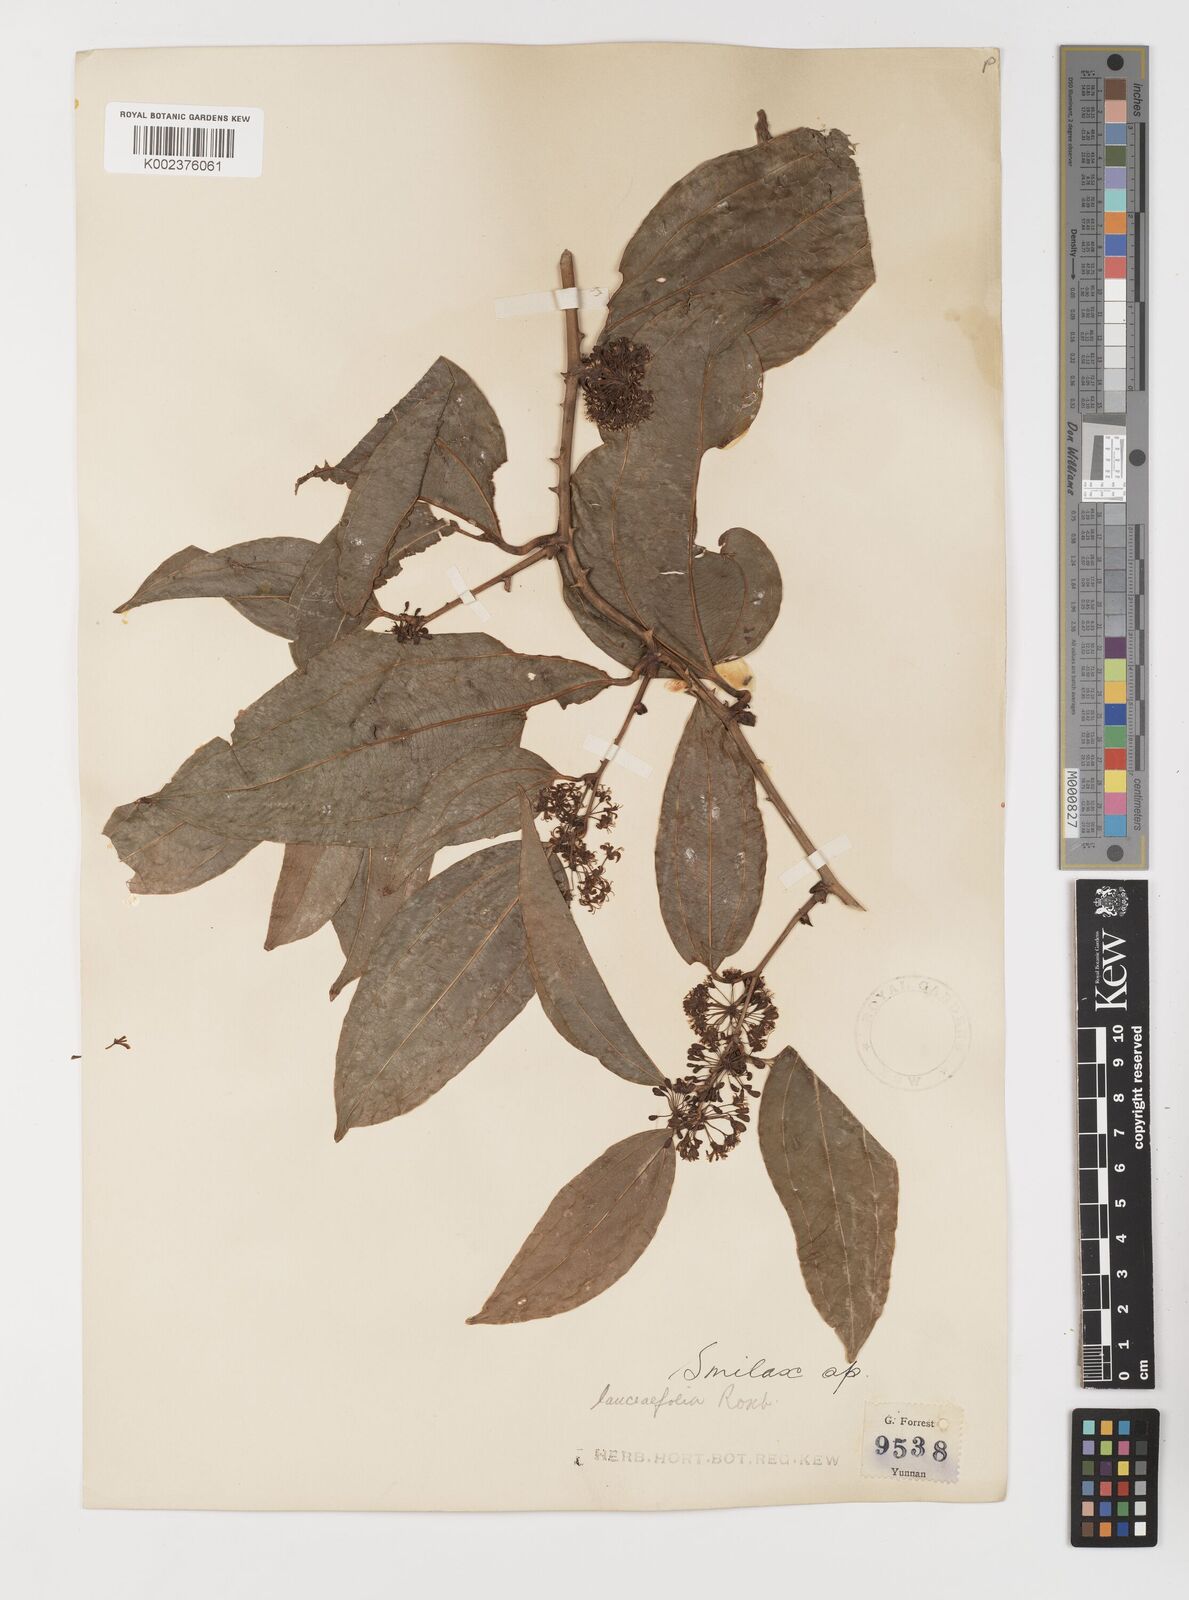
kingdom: Plantae
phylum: Tracheophyta
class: Liliopsida
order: Liliales
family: Smilacaceae
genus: Smilax
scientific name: Smilax lanceifolia
